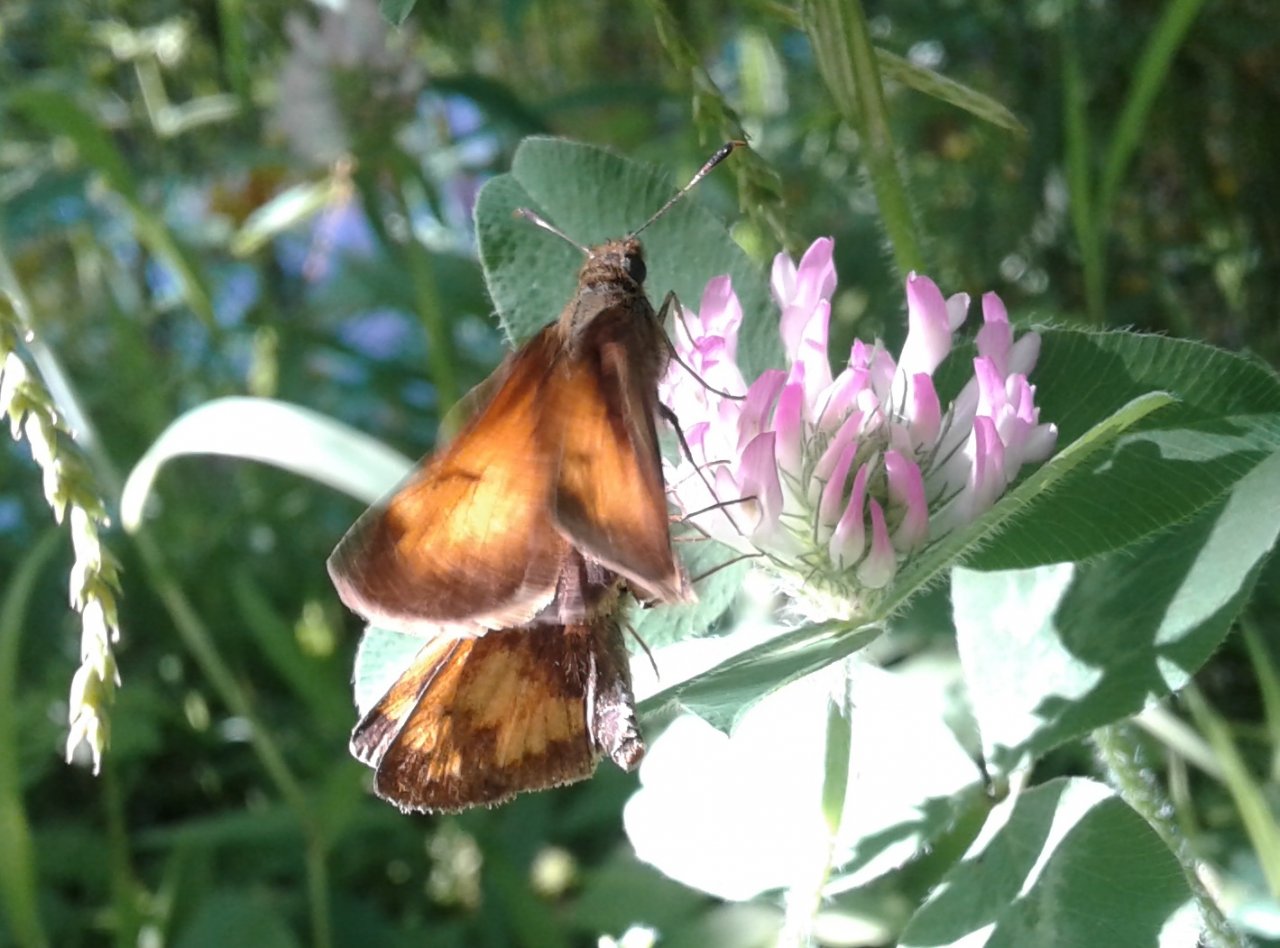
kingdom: Animalia
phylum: Arthropoda
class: Insecta
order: Lepidoptera
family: Hesperiidae
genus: Lon
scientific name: Lon hobomok
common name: Hobomok Skipper
